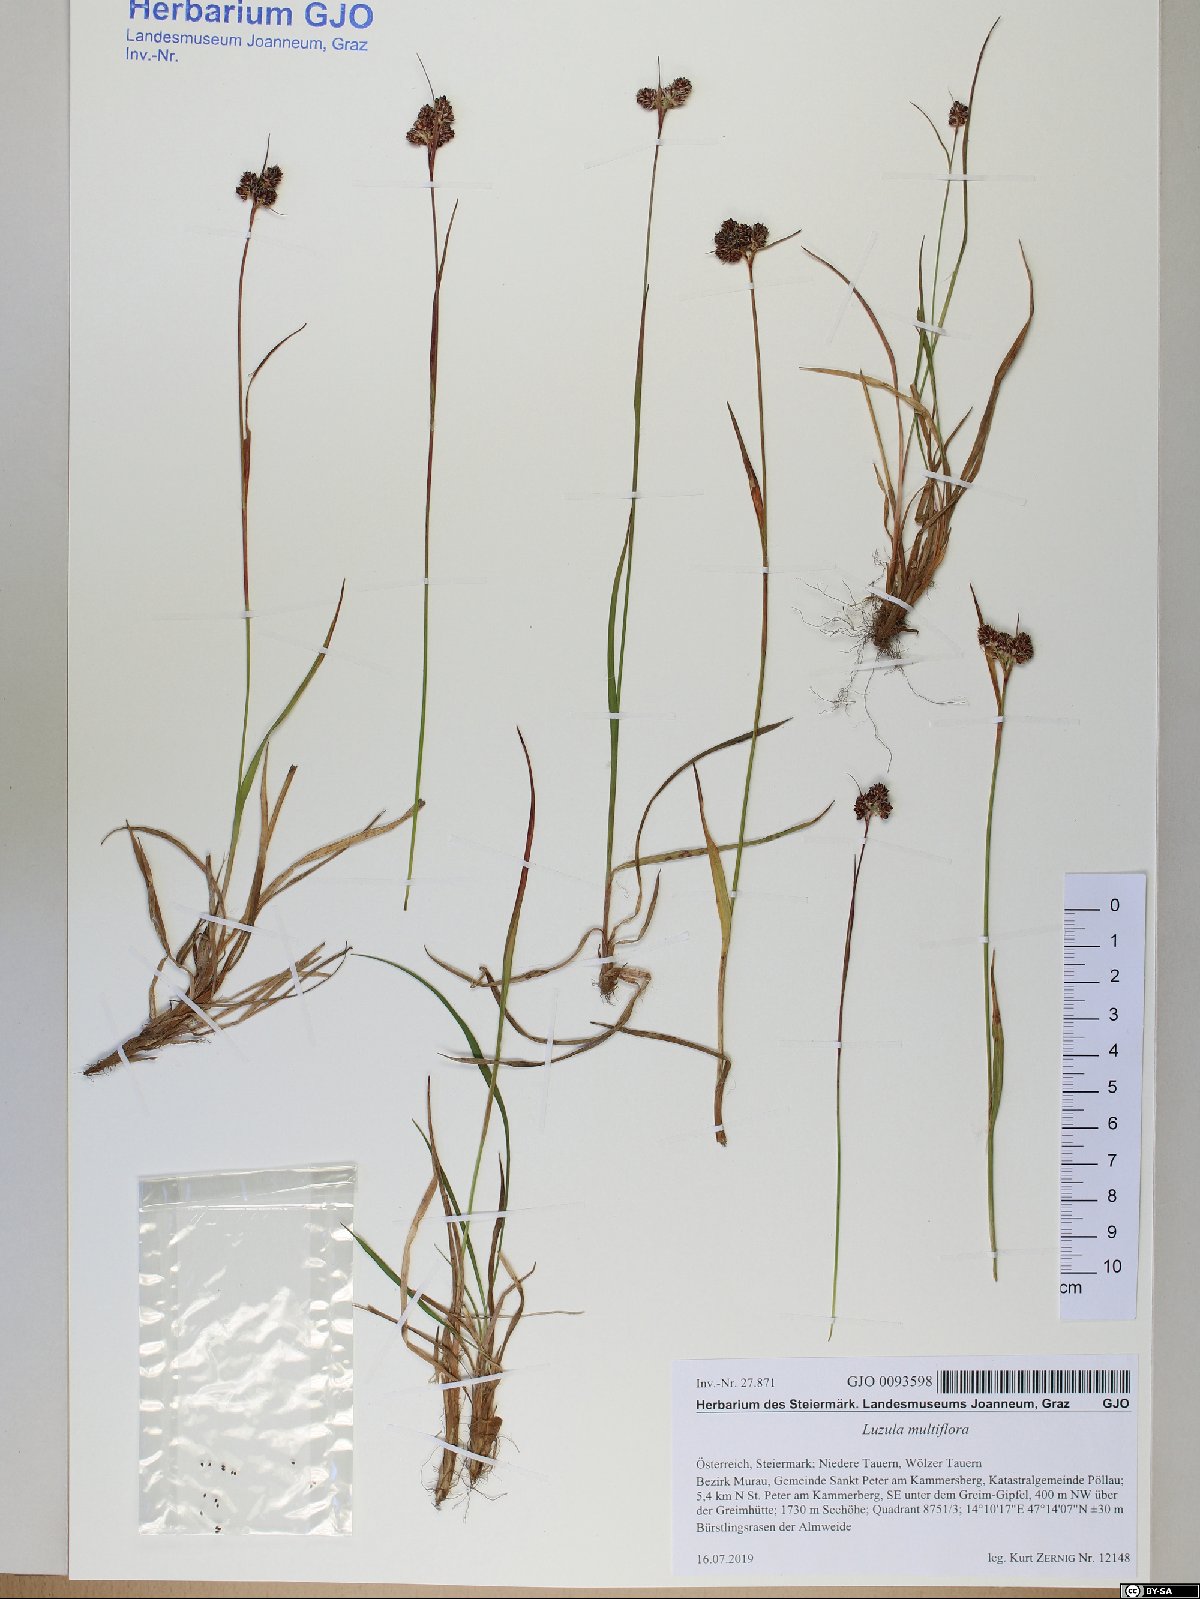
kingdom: Plantae
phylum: Tracheophyta
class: Liliopsida
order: Poales
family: Juncaceae
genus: Luzula
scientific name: Luzula multiflora
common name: Heath wood-rush
